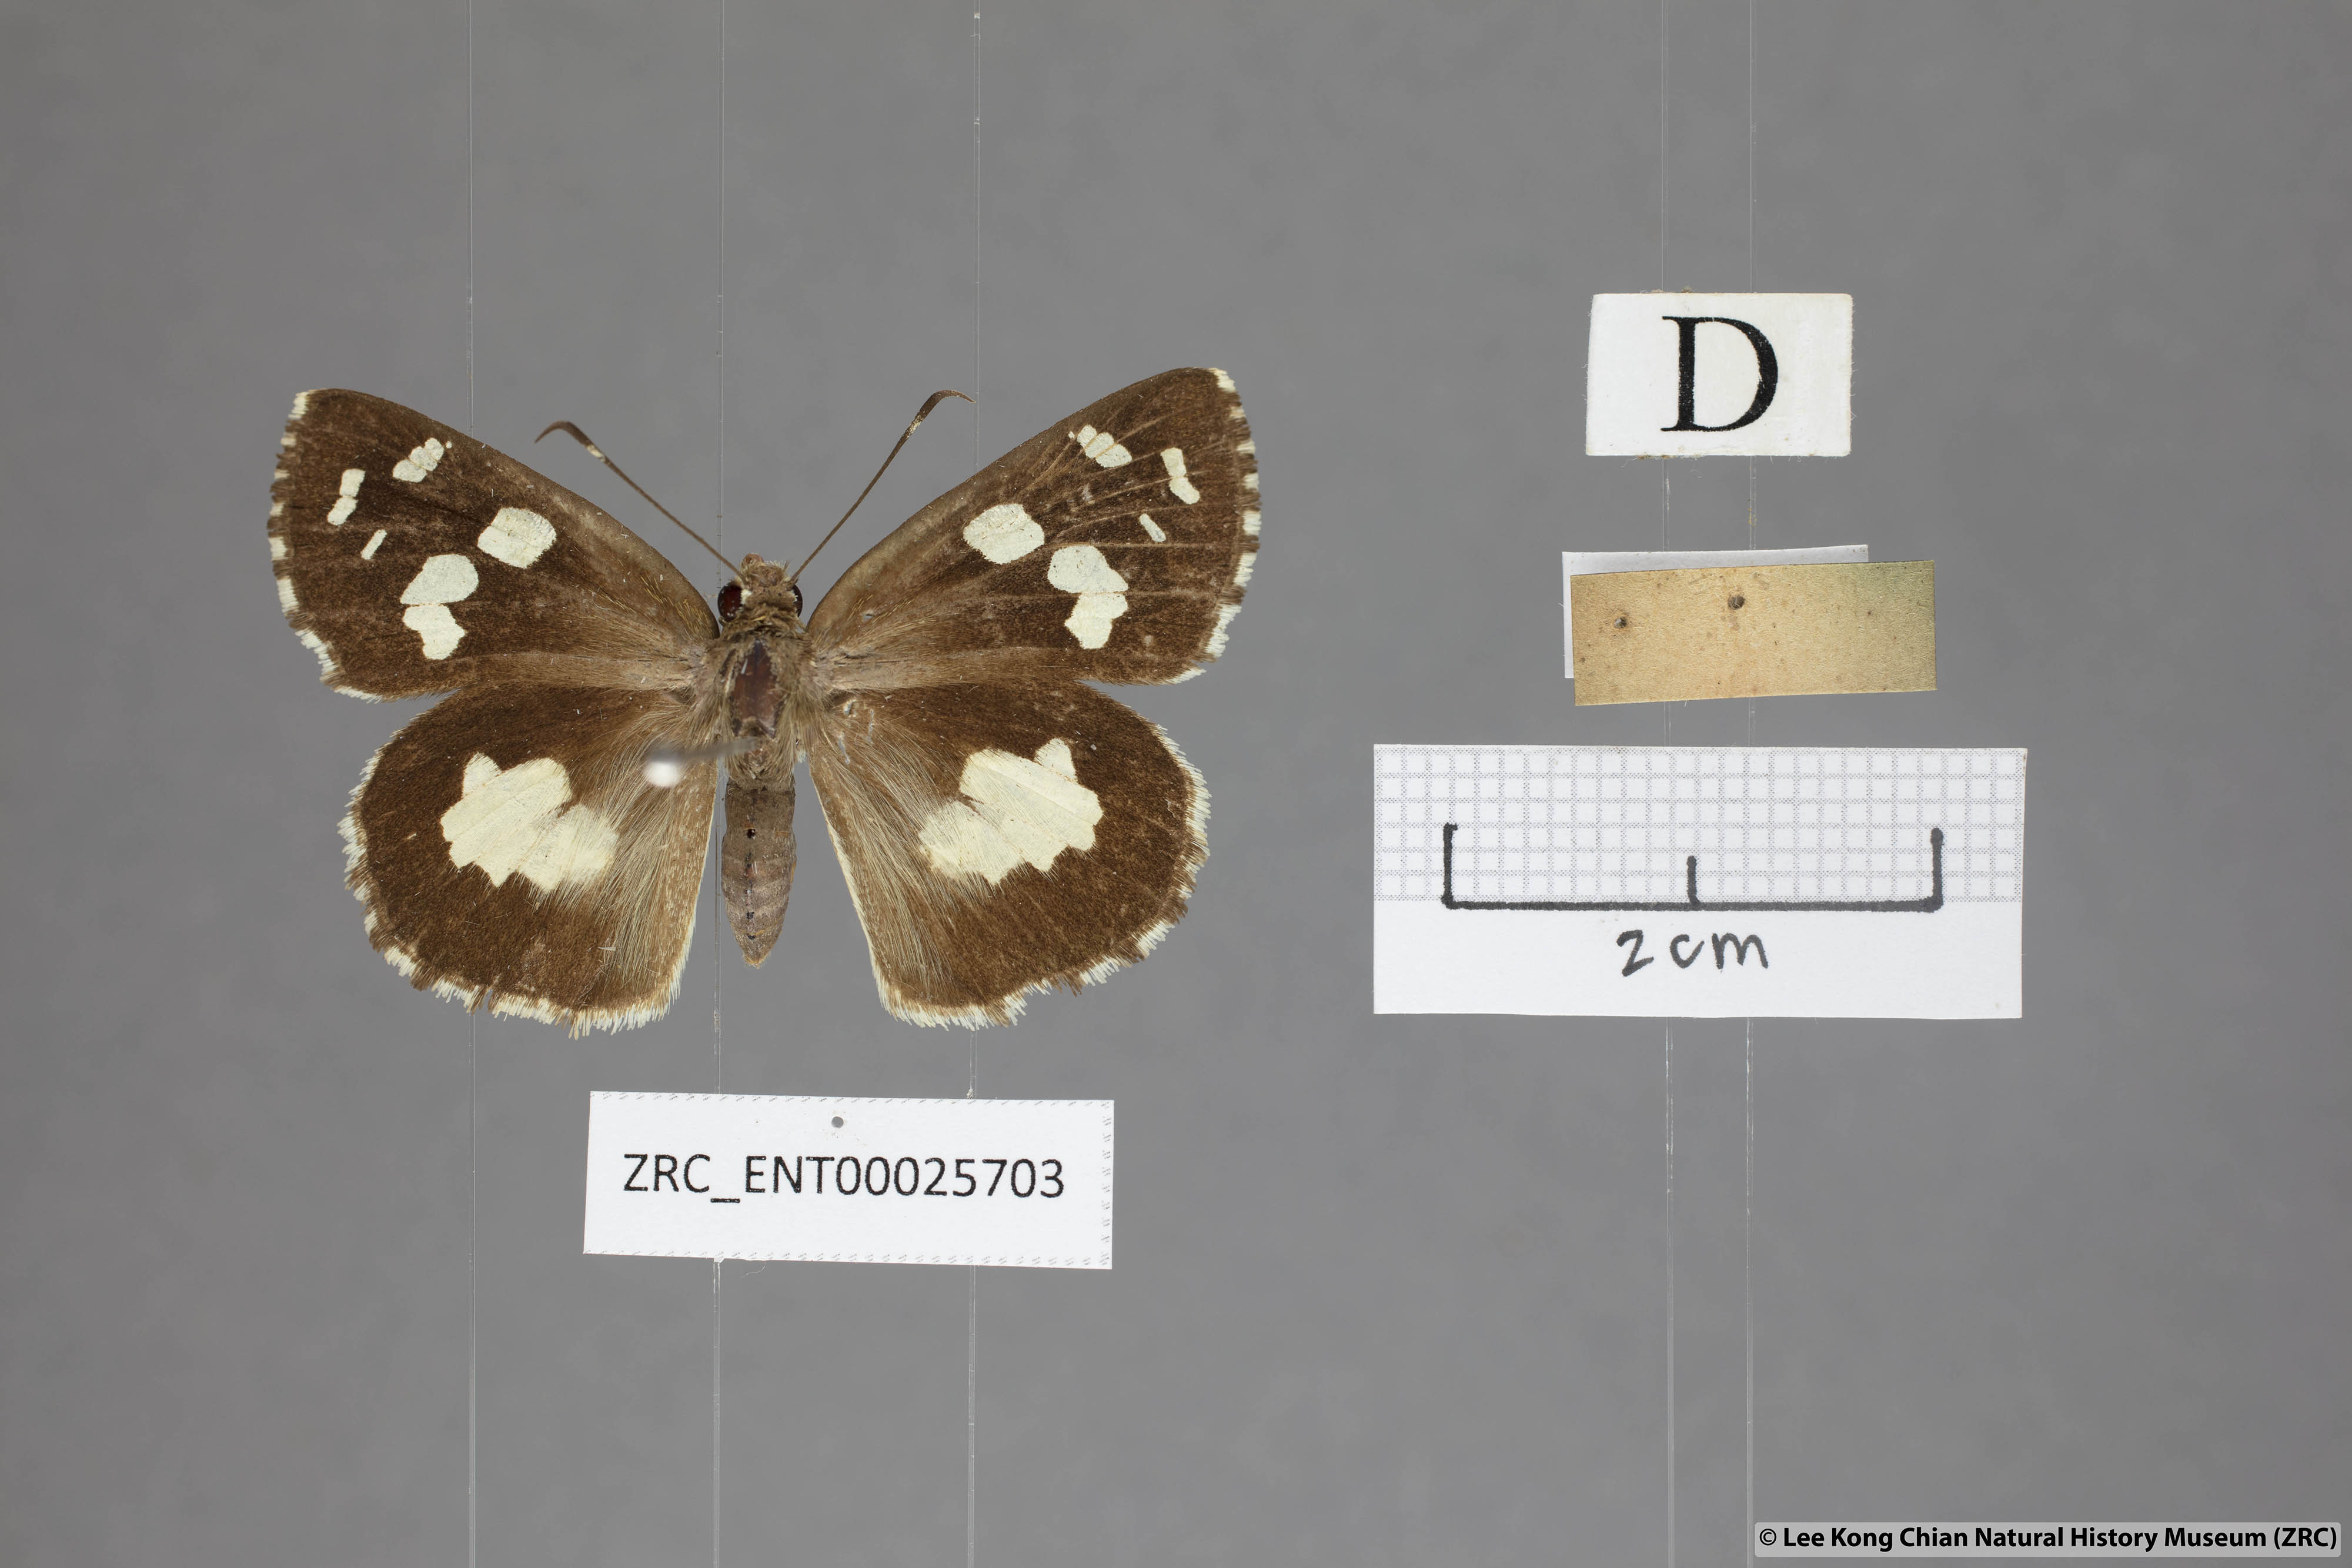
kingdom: Animalia
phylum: Arthropoda
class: Insecta
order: Lepidoptera
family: Hesperiidae
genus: Udaspes
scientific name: Udaspes folus
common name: Grass demon
